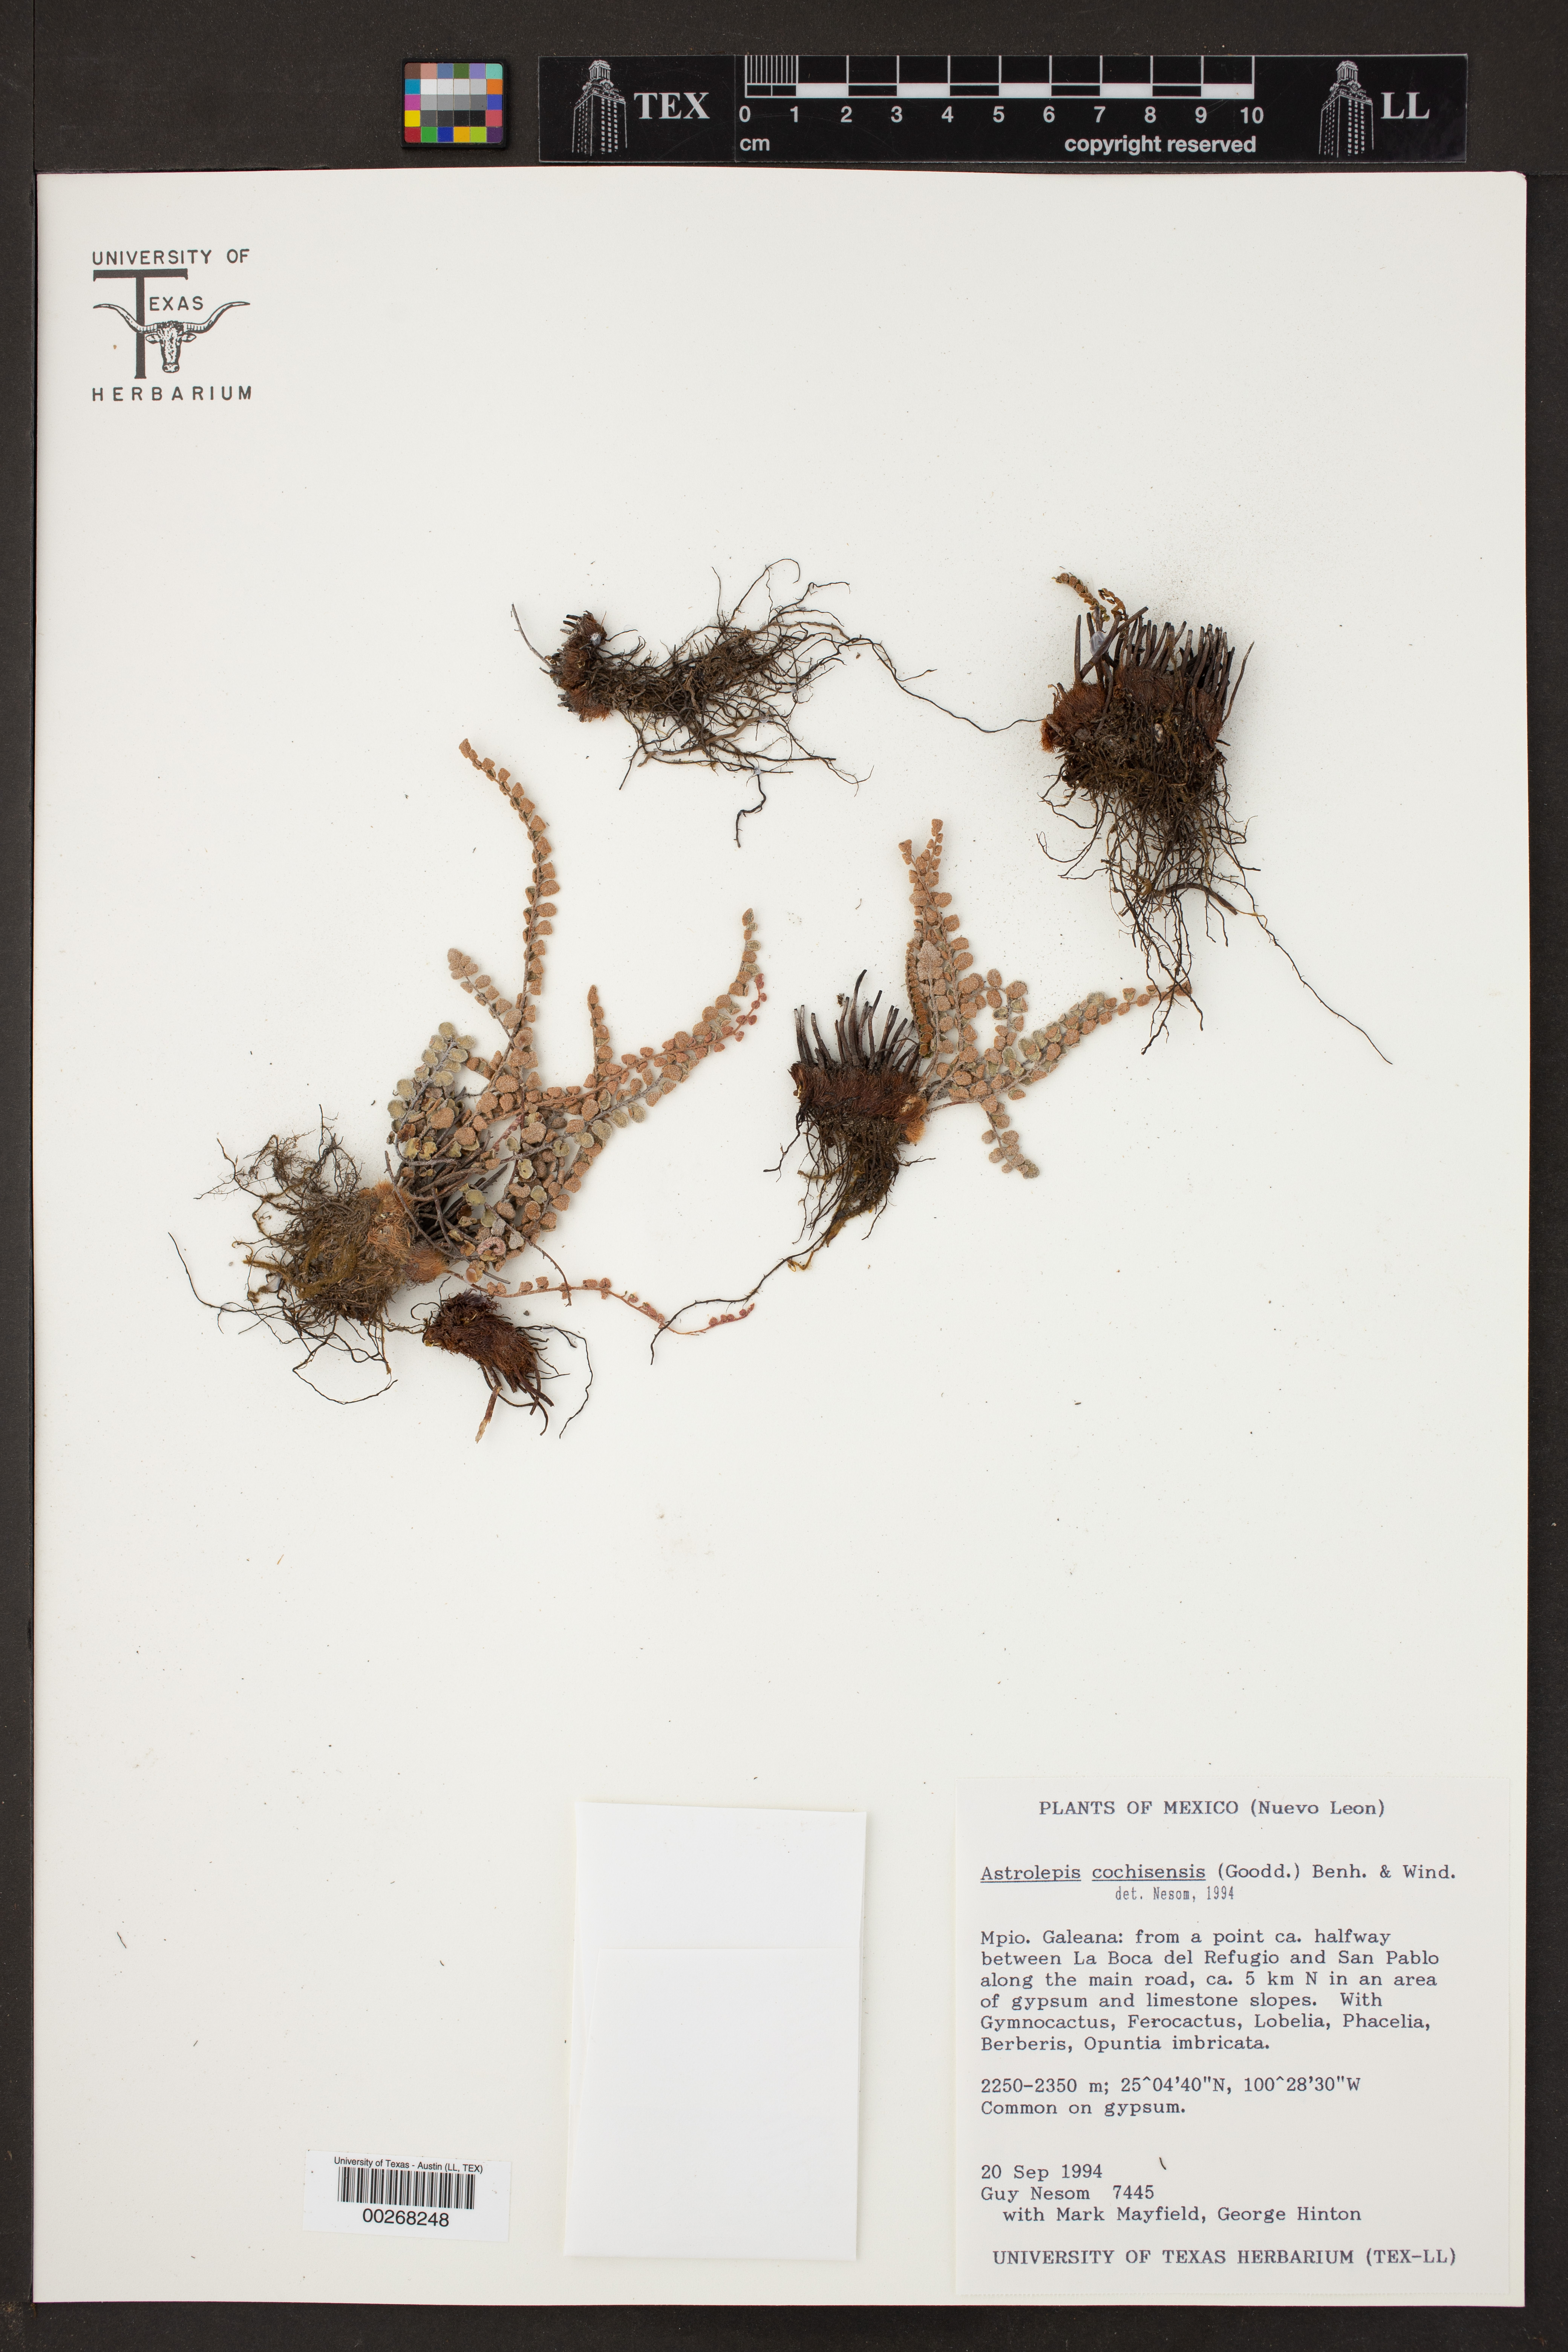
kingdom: Plantae
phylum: Tracheophyta
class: Polypodiopsida
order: Polypodiales
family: Pteridaceae
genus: Astrolepis
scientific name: Astrolepis cochisensis
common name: Scaly cloak fern
